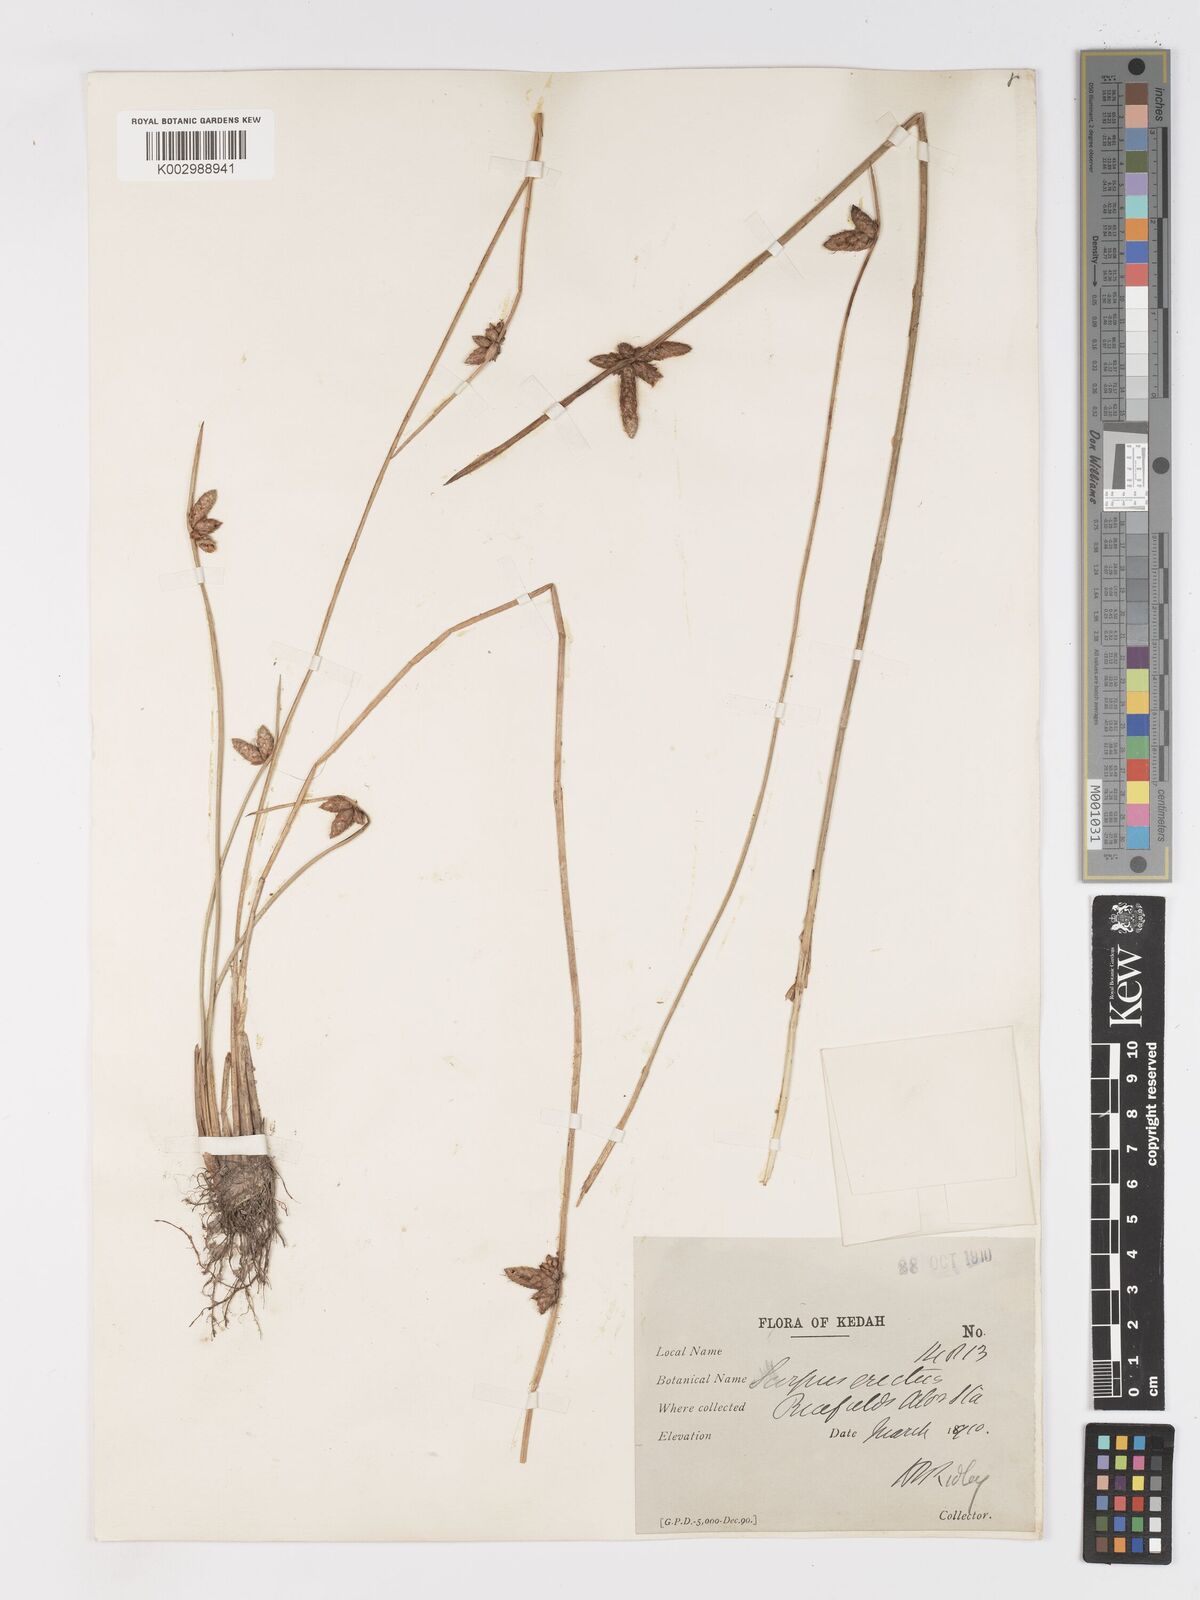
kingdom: Plantae
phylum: Tracheophyta
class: Liliopsida
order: Poales
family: Cyperaceae
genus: Schoenoplectiella
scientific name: Schoenoplectiella juncoides
